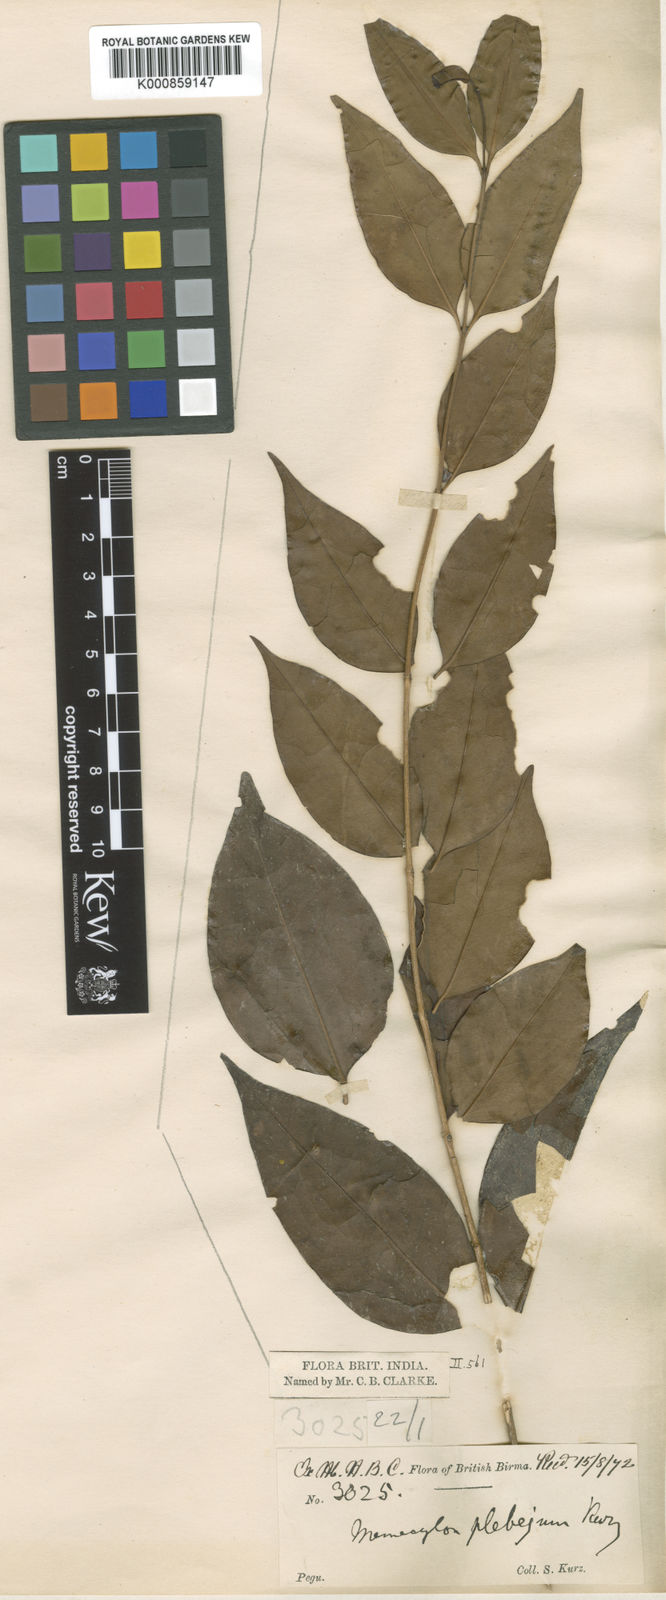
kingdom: Plantae
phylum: Tracheophyta
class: Magnoliopsida
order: Myrtales
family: Melastomataceae
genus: Memecylon
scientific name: Memecylon plebejum
